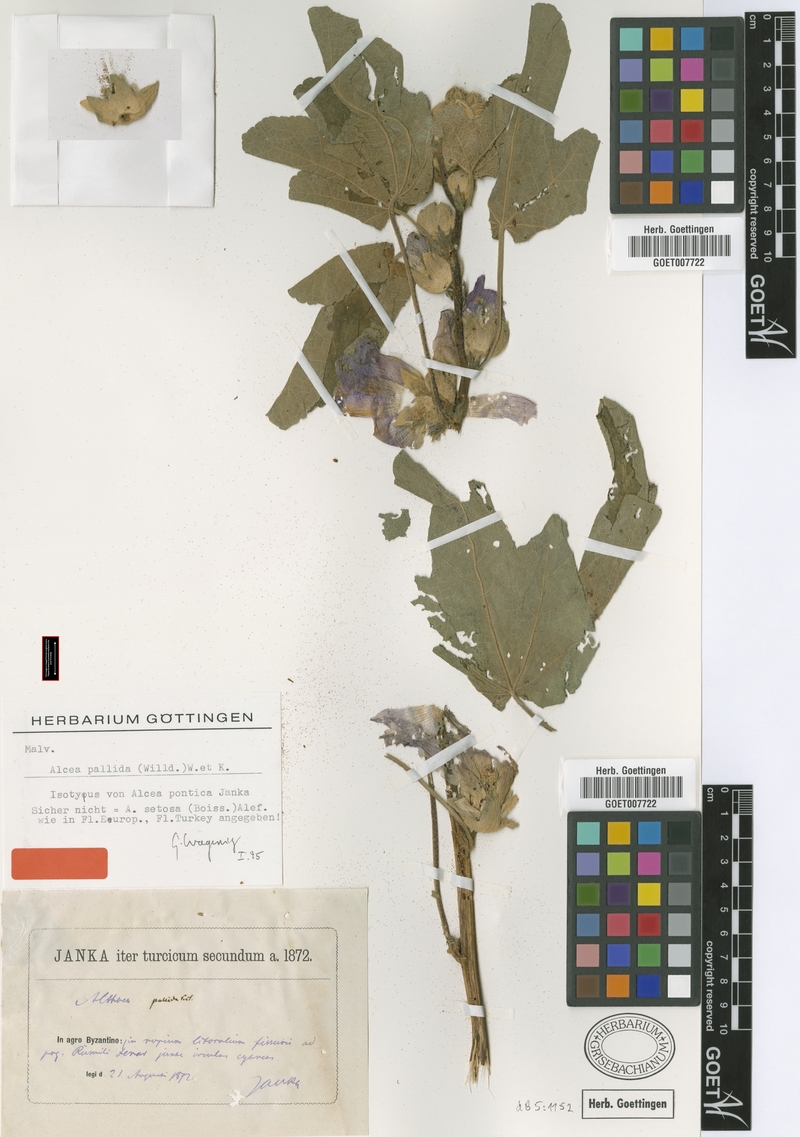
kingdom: Plantae
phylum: Tracheophyta
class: Magnoliopsida
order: Malvales
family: Malvaceae
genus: Alcea
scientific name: Alcea biennis
